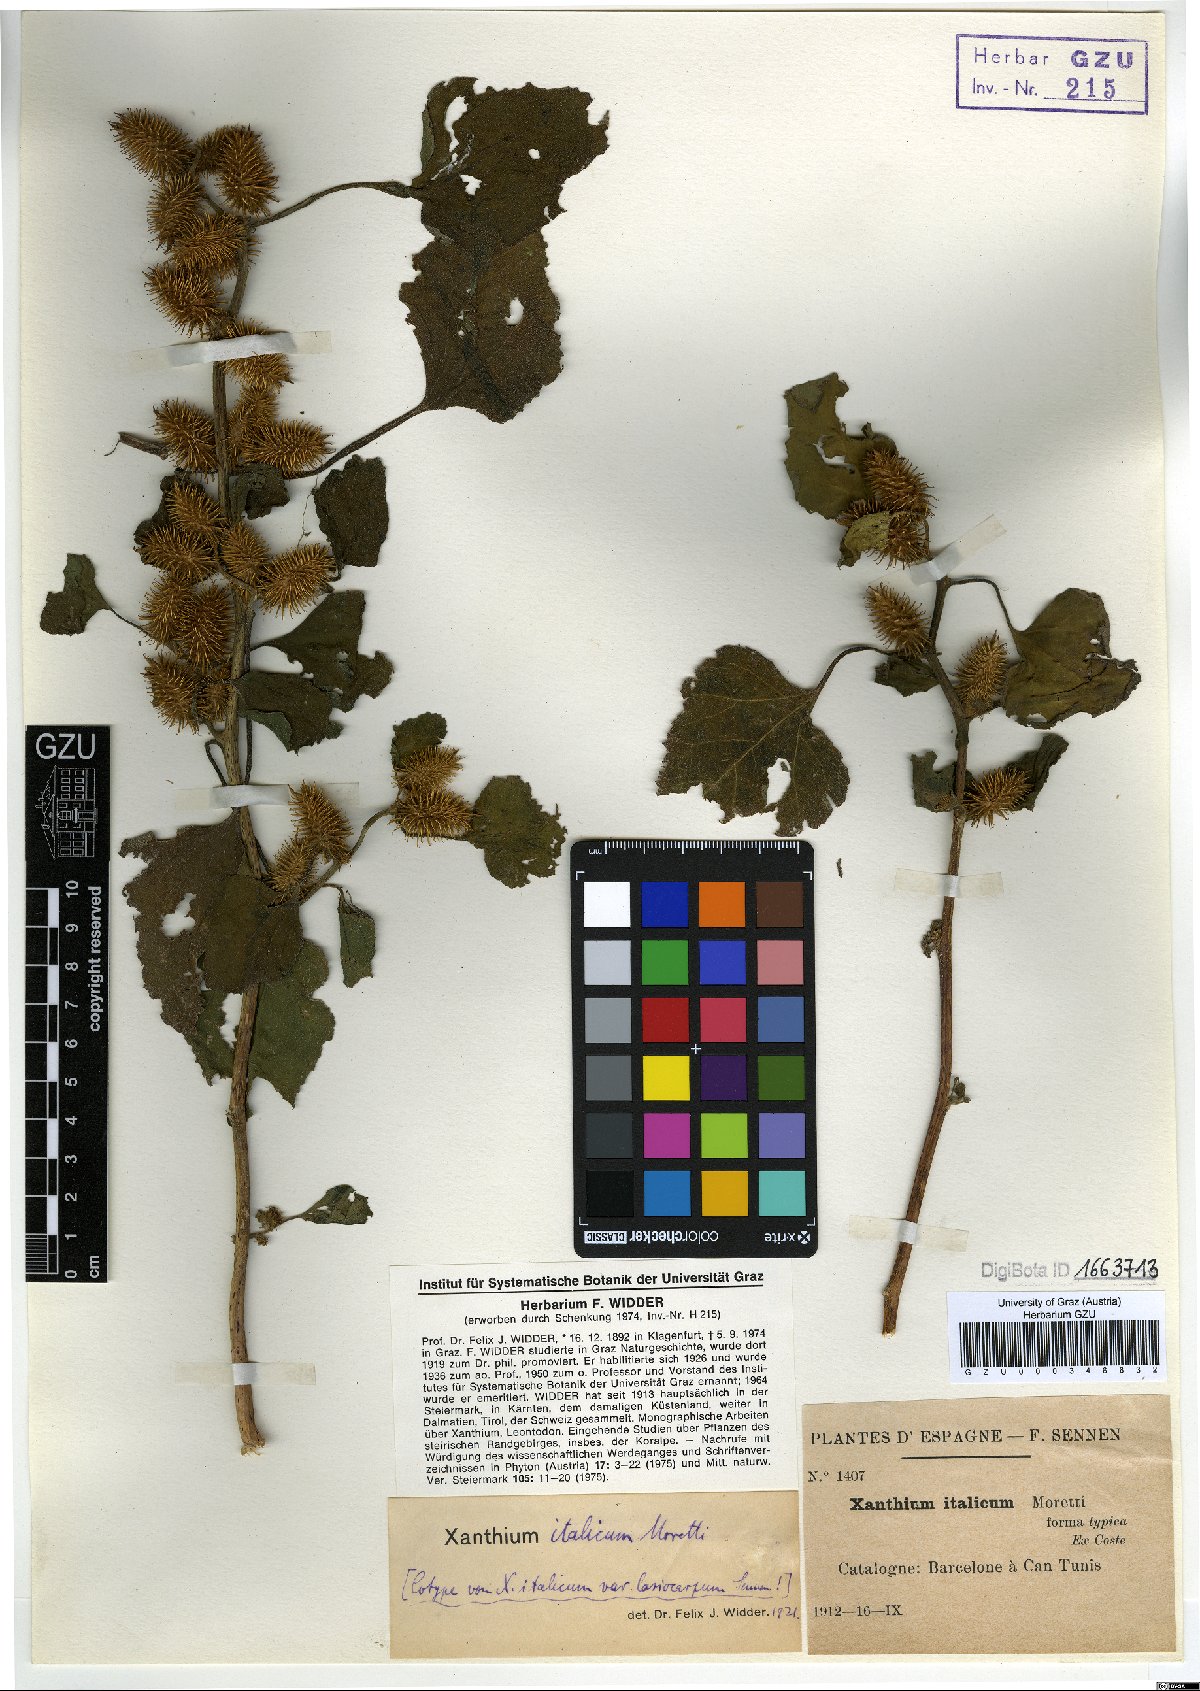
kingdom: Plantae
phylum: Tracheophyta
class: Magnoliopsida
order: Asterales
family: Asteraceae
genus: Xanthium
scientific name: Xanthium orientale
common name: Californian burr
